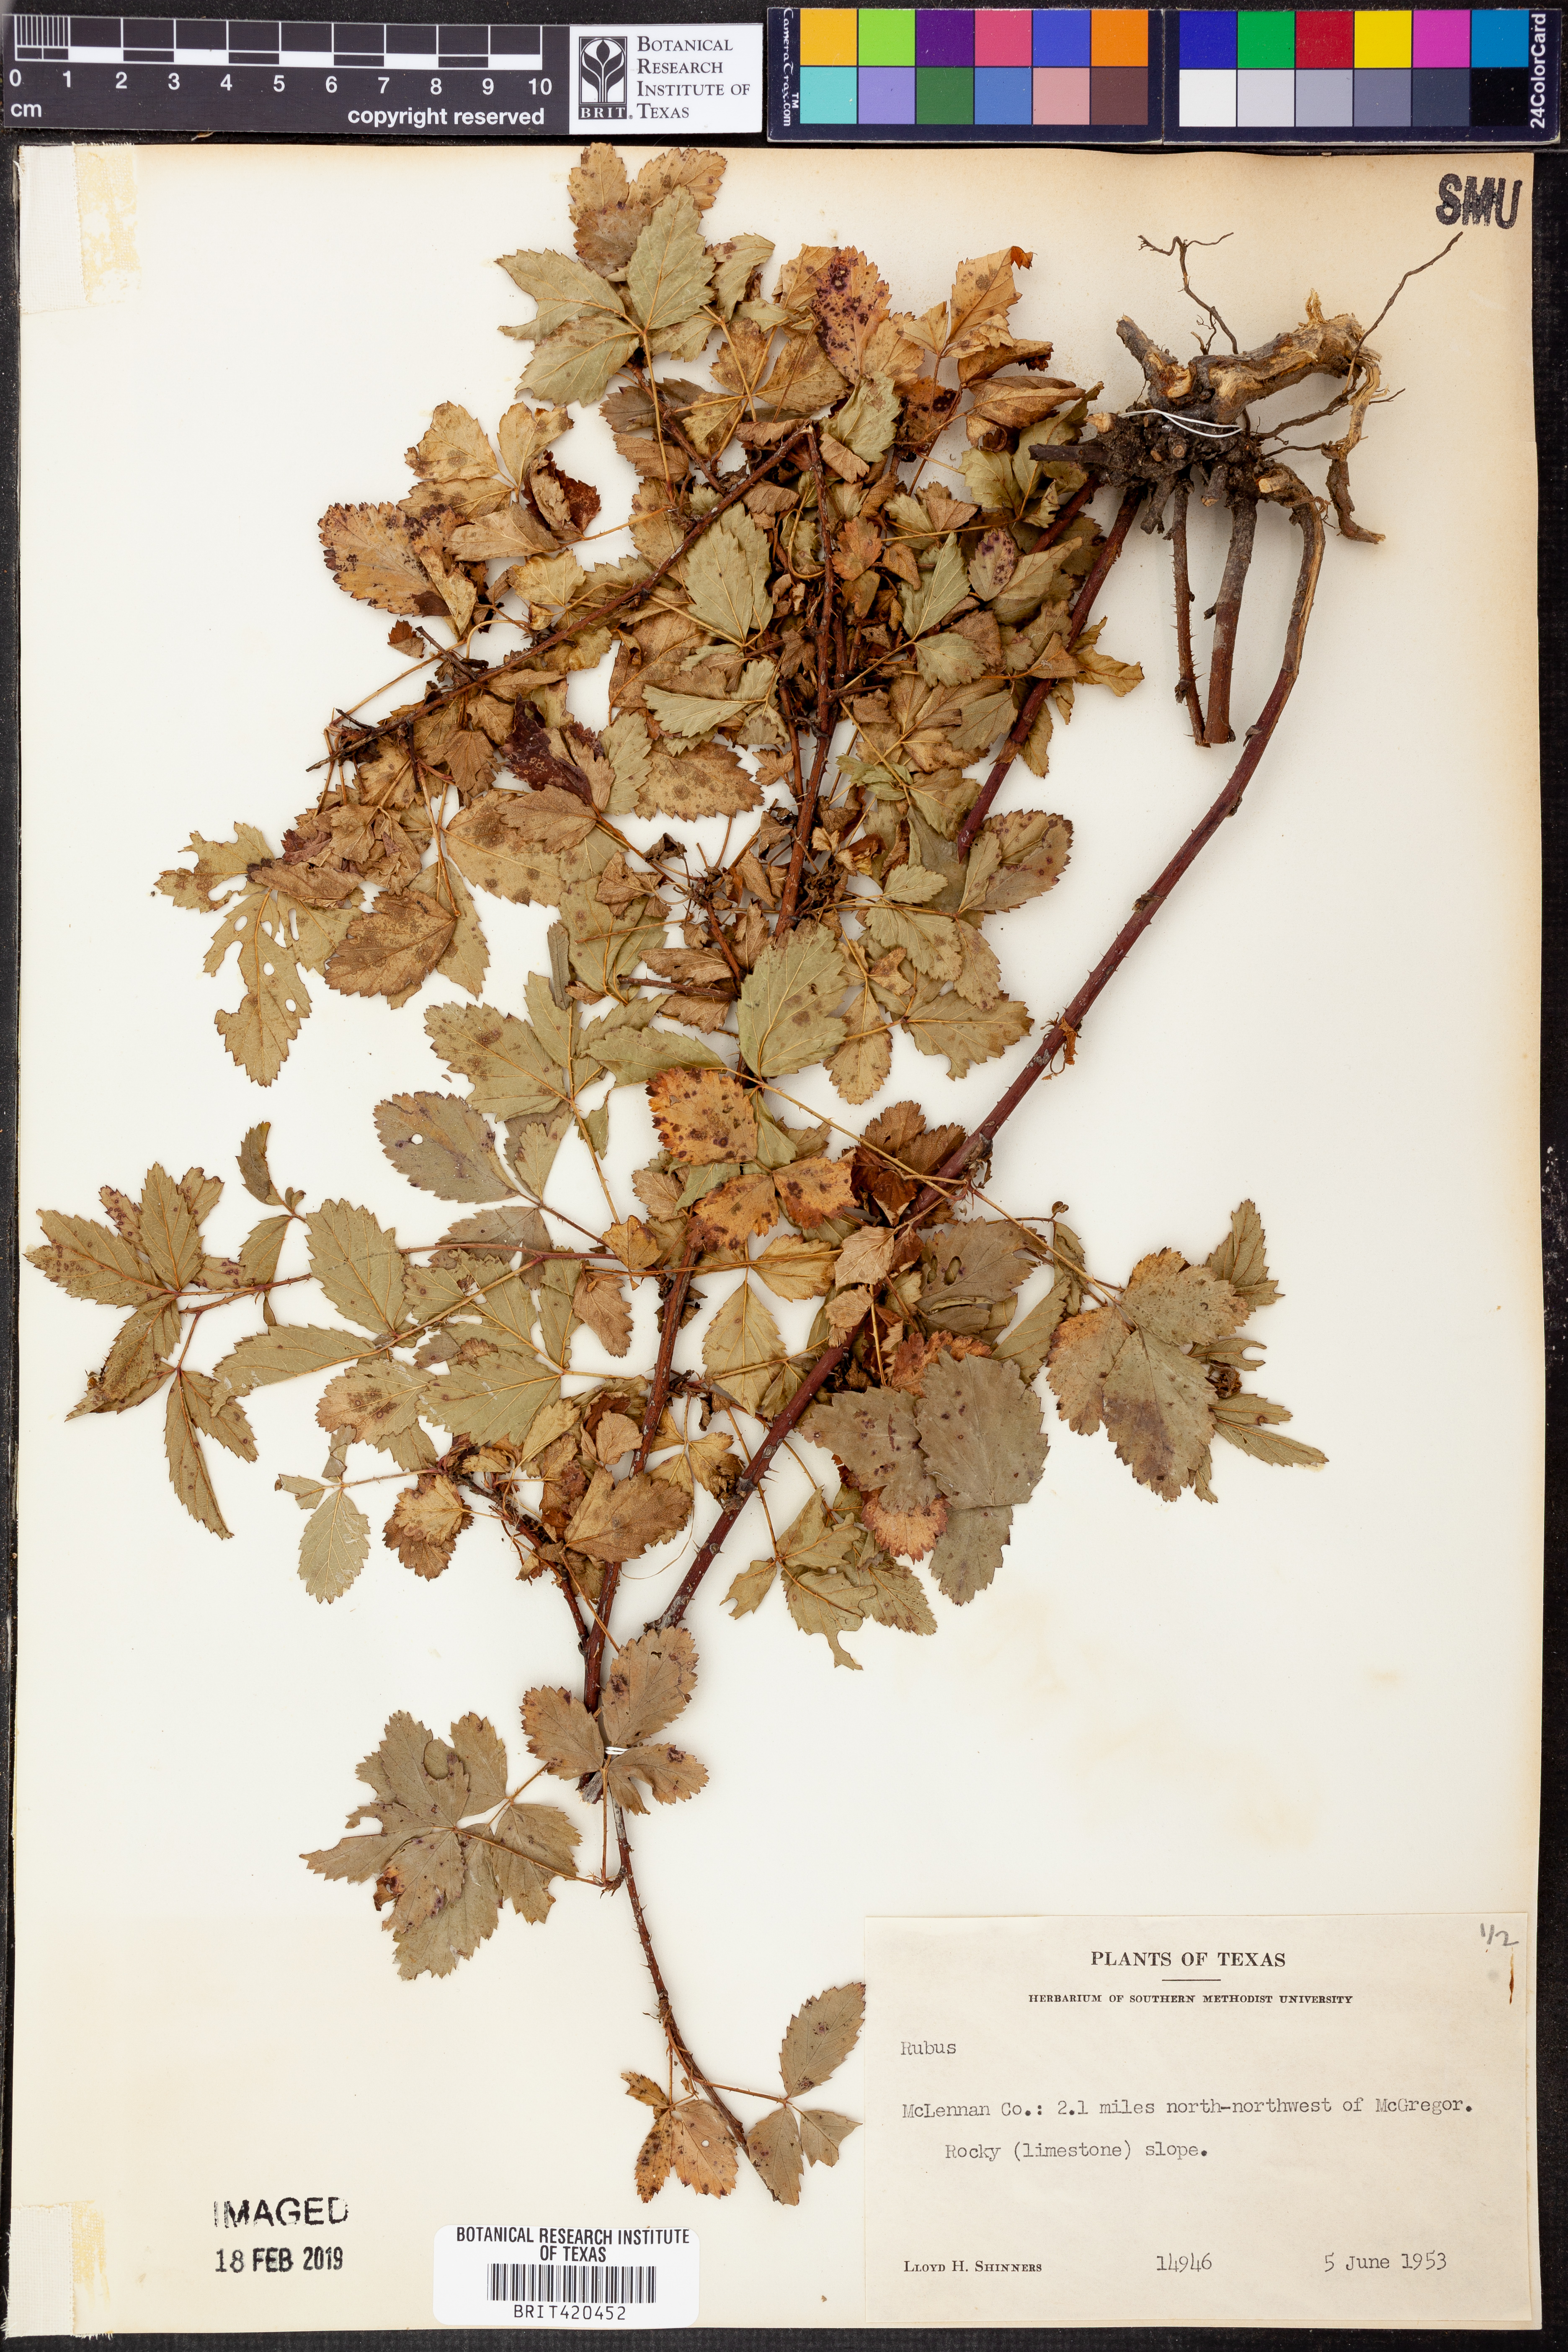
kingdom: Plantae
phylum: Tracheophyta
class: Magnoliopsida
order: Rosales
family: Rosaceae
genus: Rubus
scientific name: Rubus
